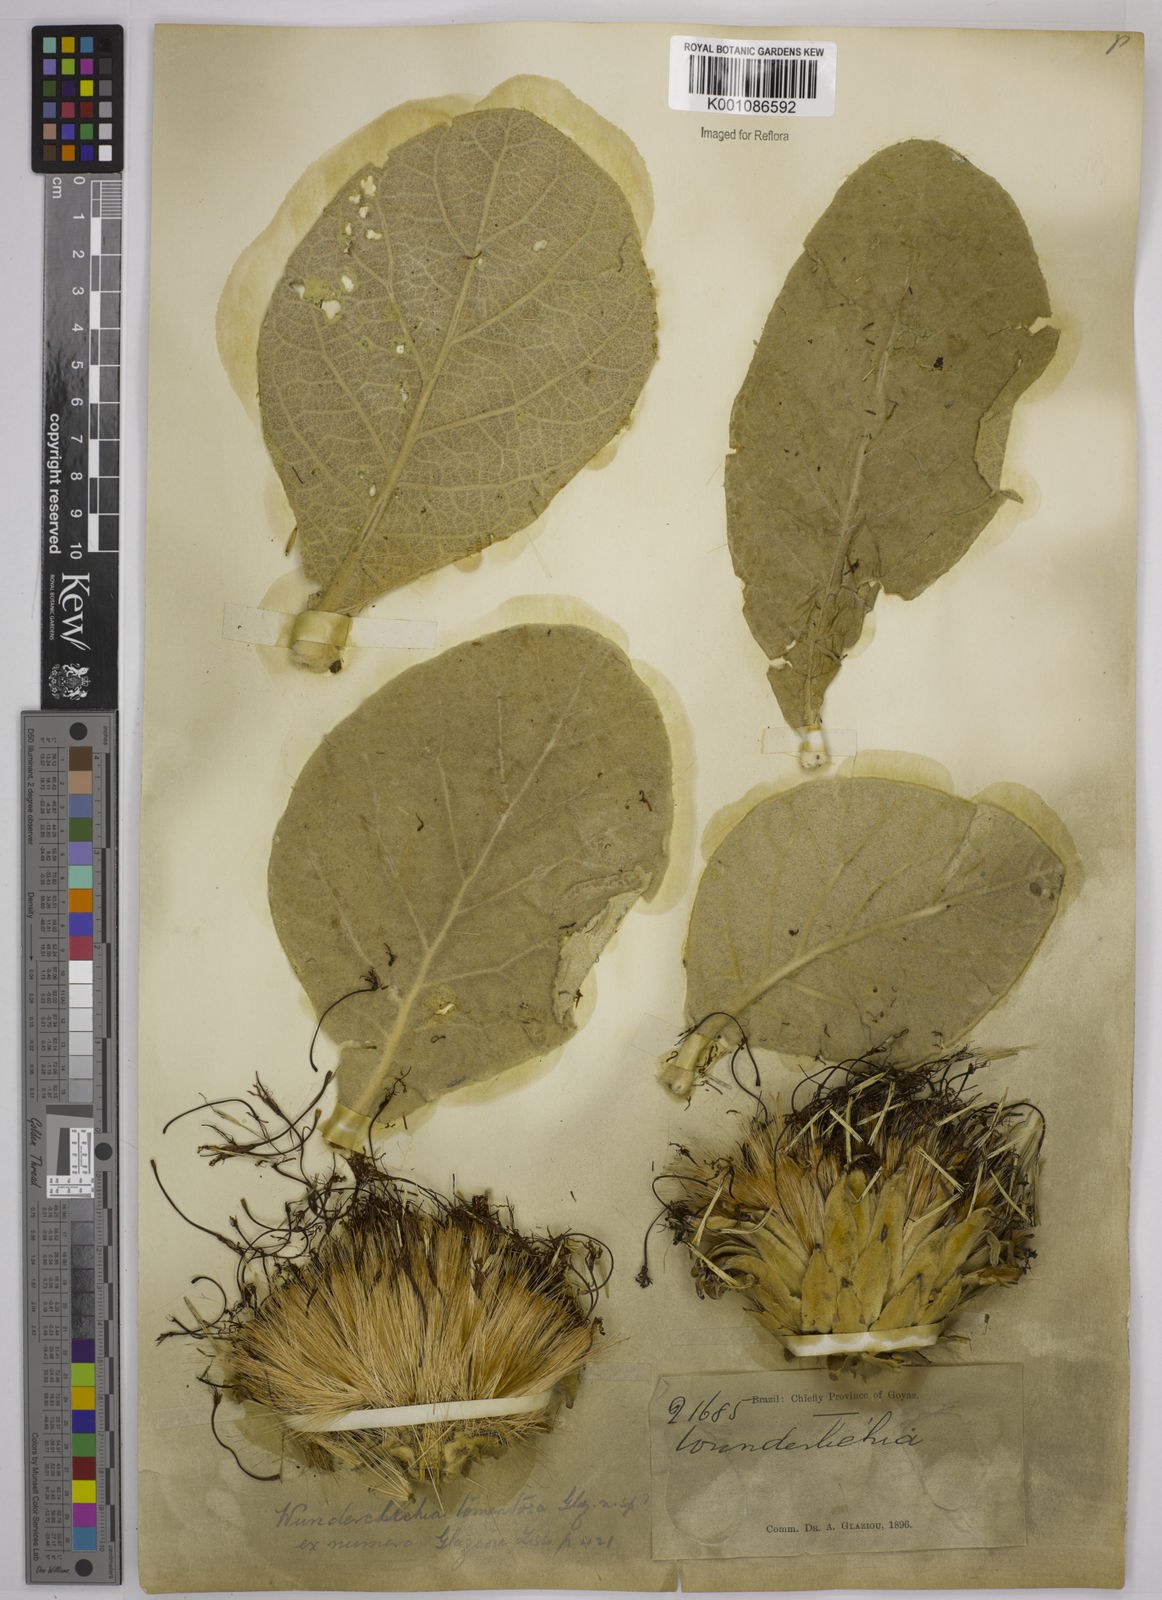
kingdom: Plantae
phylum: Tracheophyta
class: Magnoliopsida
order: Asterales
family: Asteraceae
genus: Wunderlichia
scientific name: Wunderlichia mirabilis
